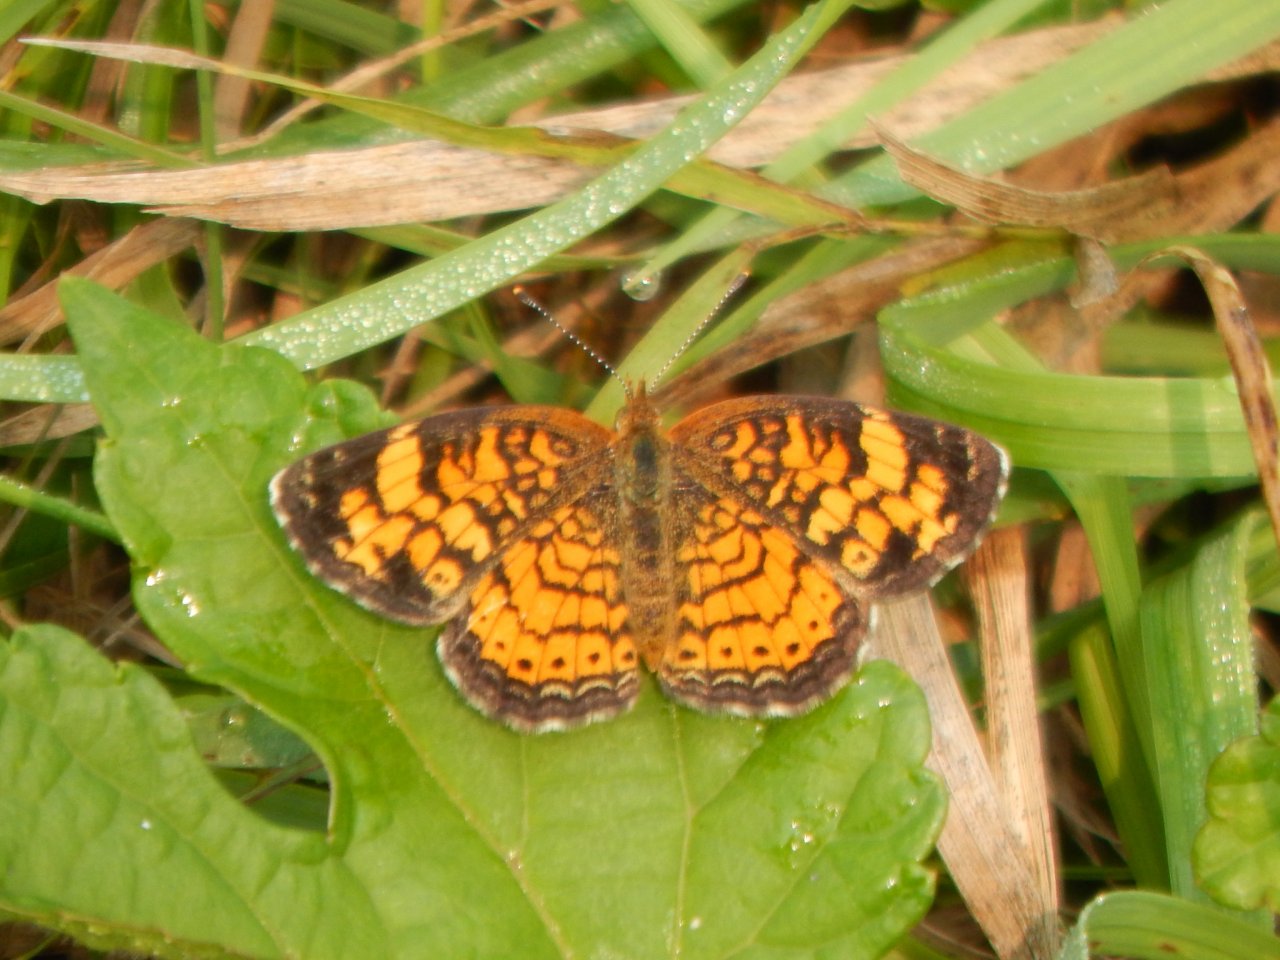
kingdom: Animalia
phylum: Arthropoda
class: Insecta
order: Lepidoptera
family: Nymphalidae
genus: Phyciodes
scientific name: Phyciodes tharos
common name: Pearl Crescent
